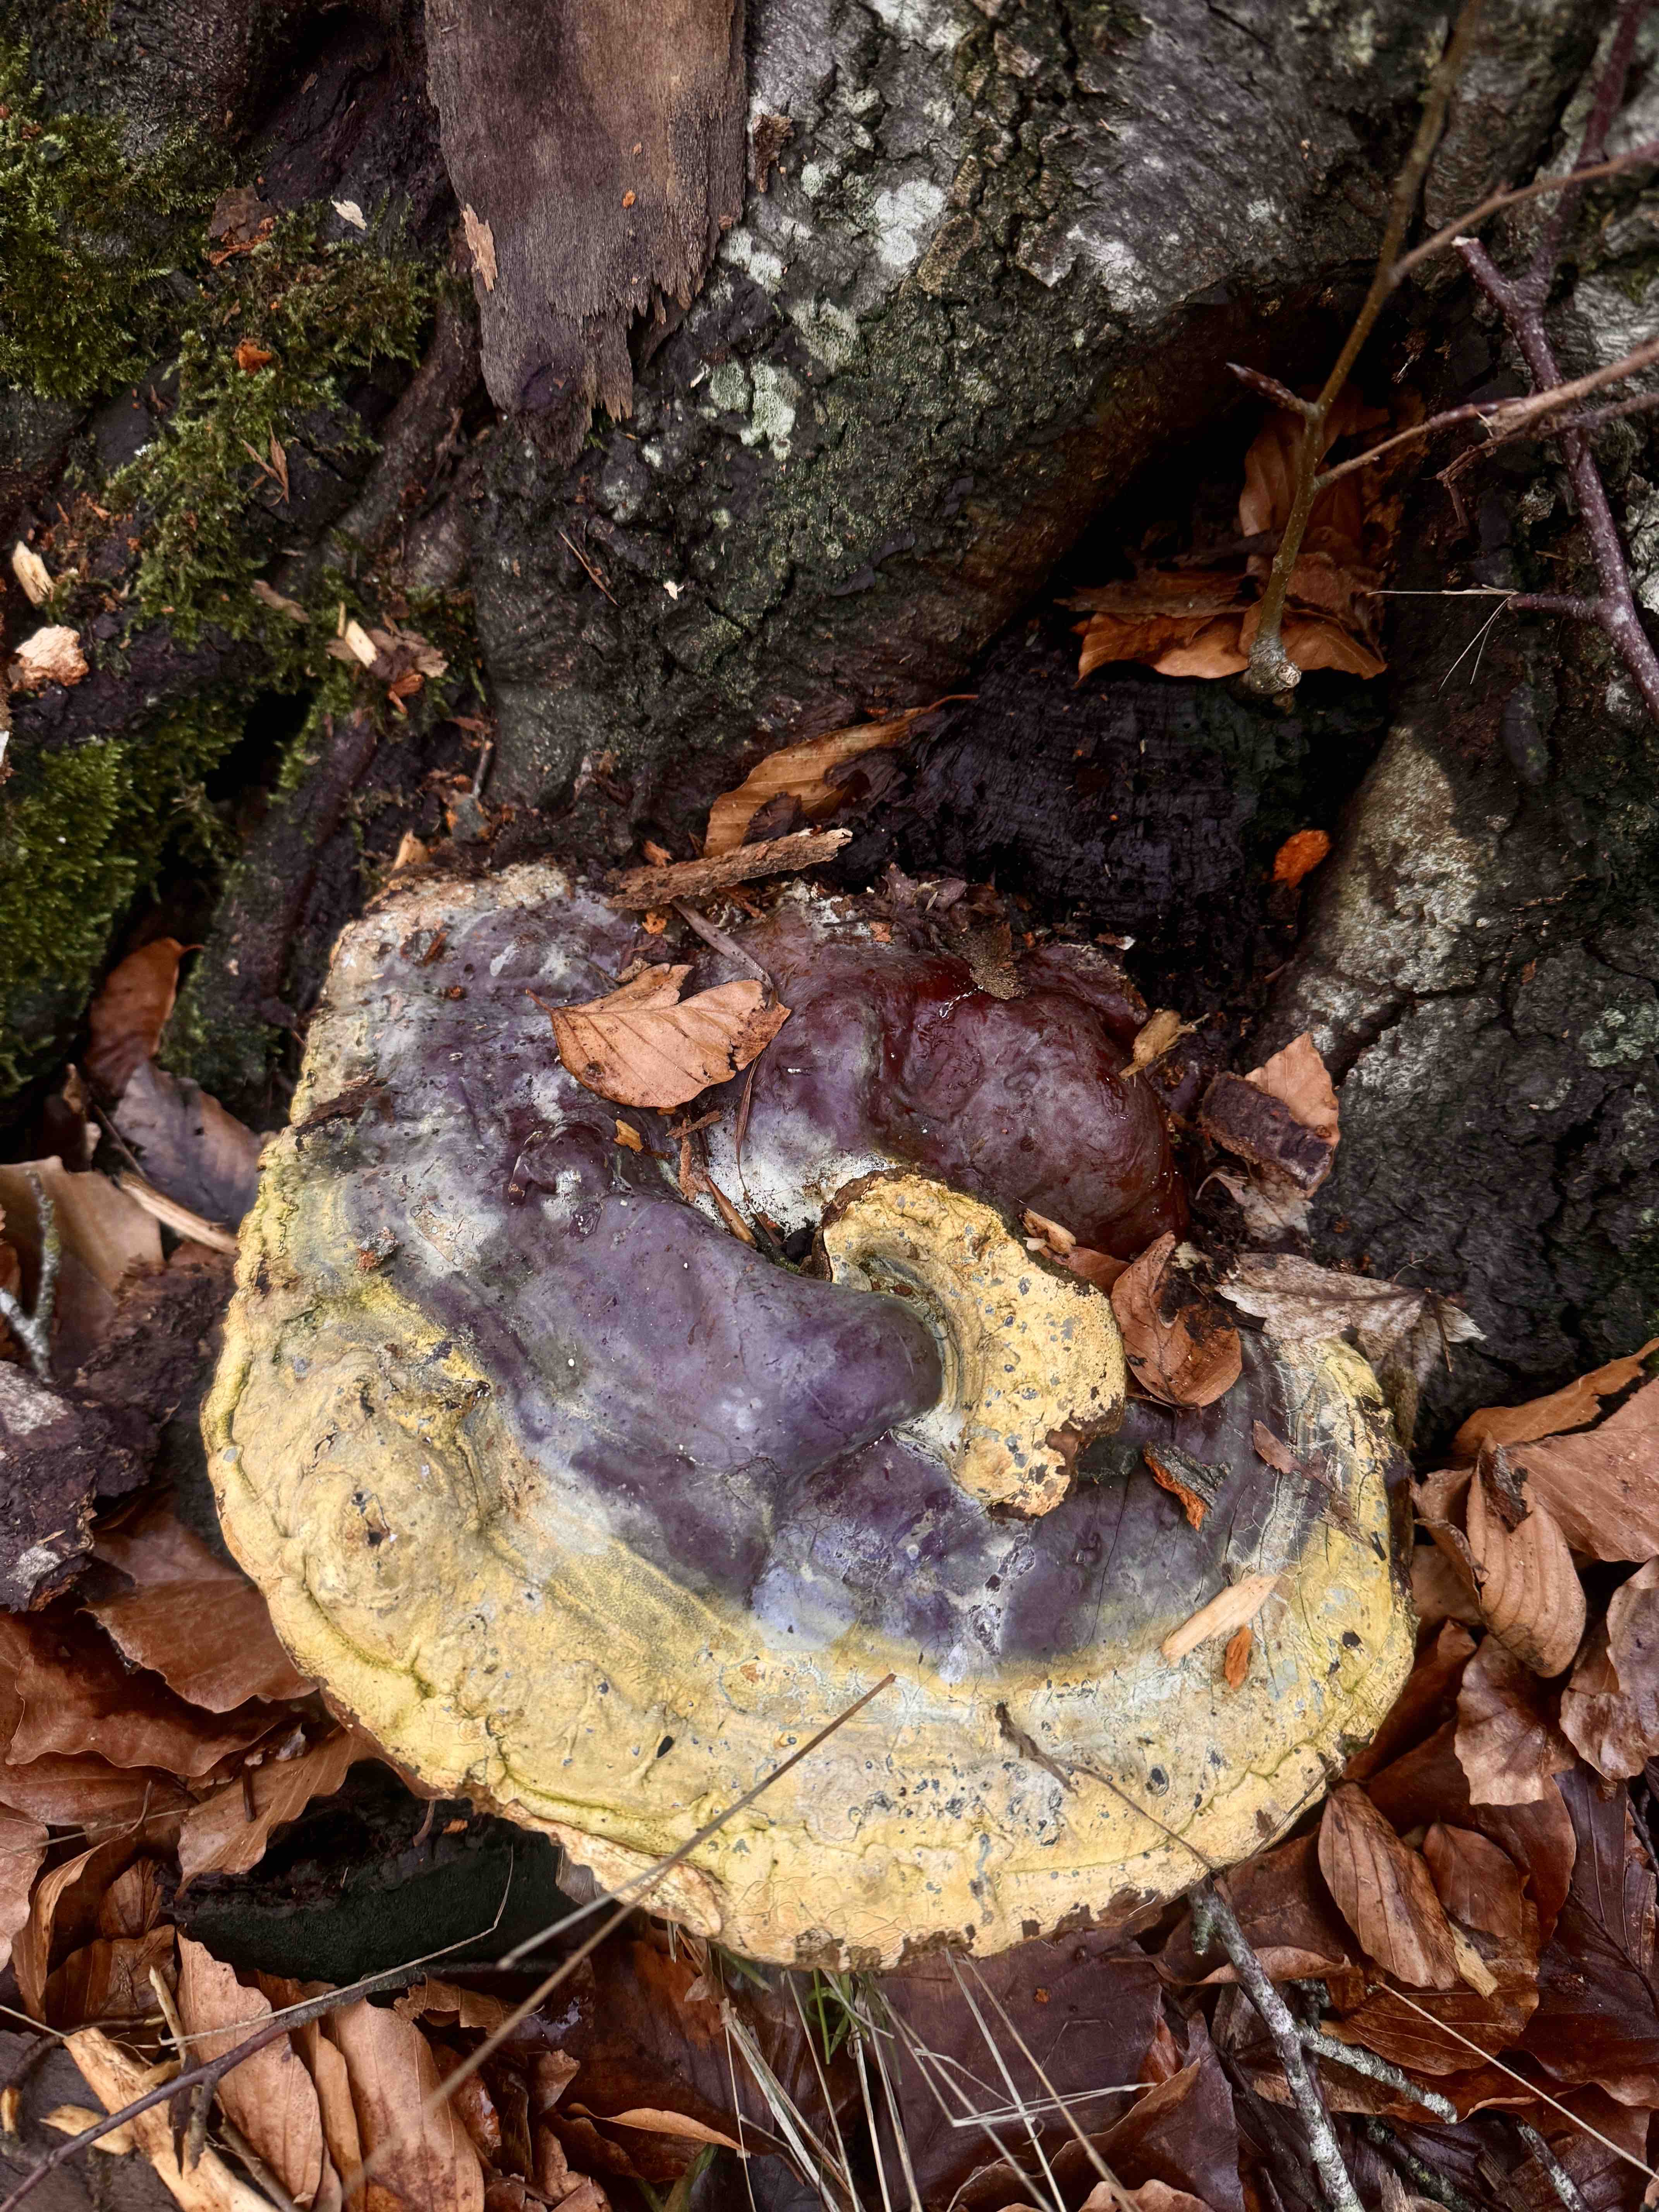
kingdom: Fungi
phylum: Basidiomycota
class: Agaricomycetes
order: Polyporales
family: Polyporaceae
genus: Ganoderma
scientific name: Ganoderma resinaceum
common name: gyldenbrun lakporesvamp
